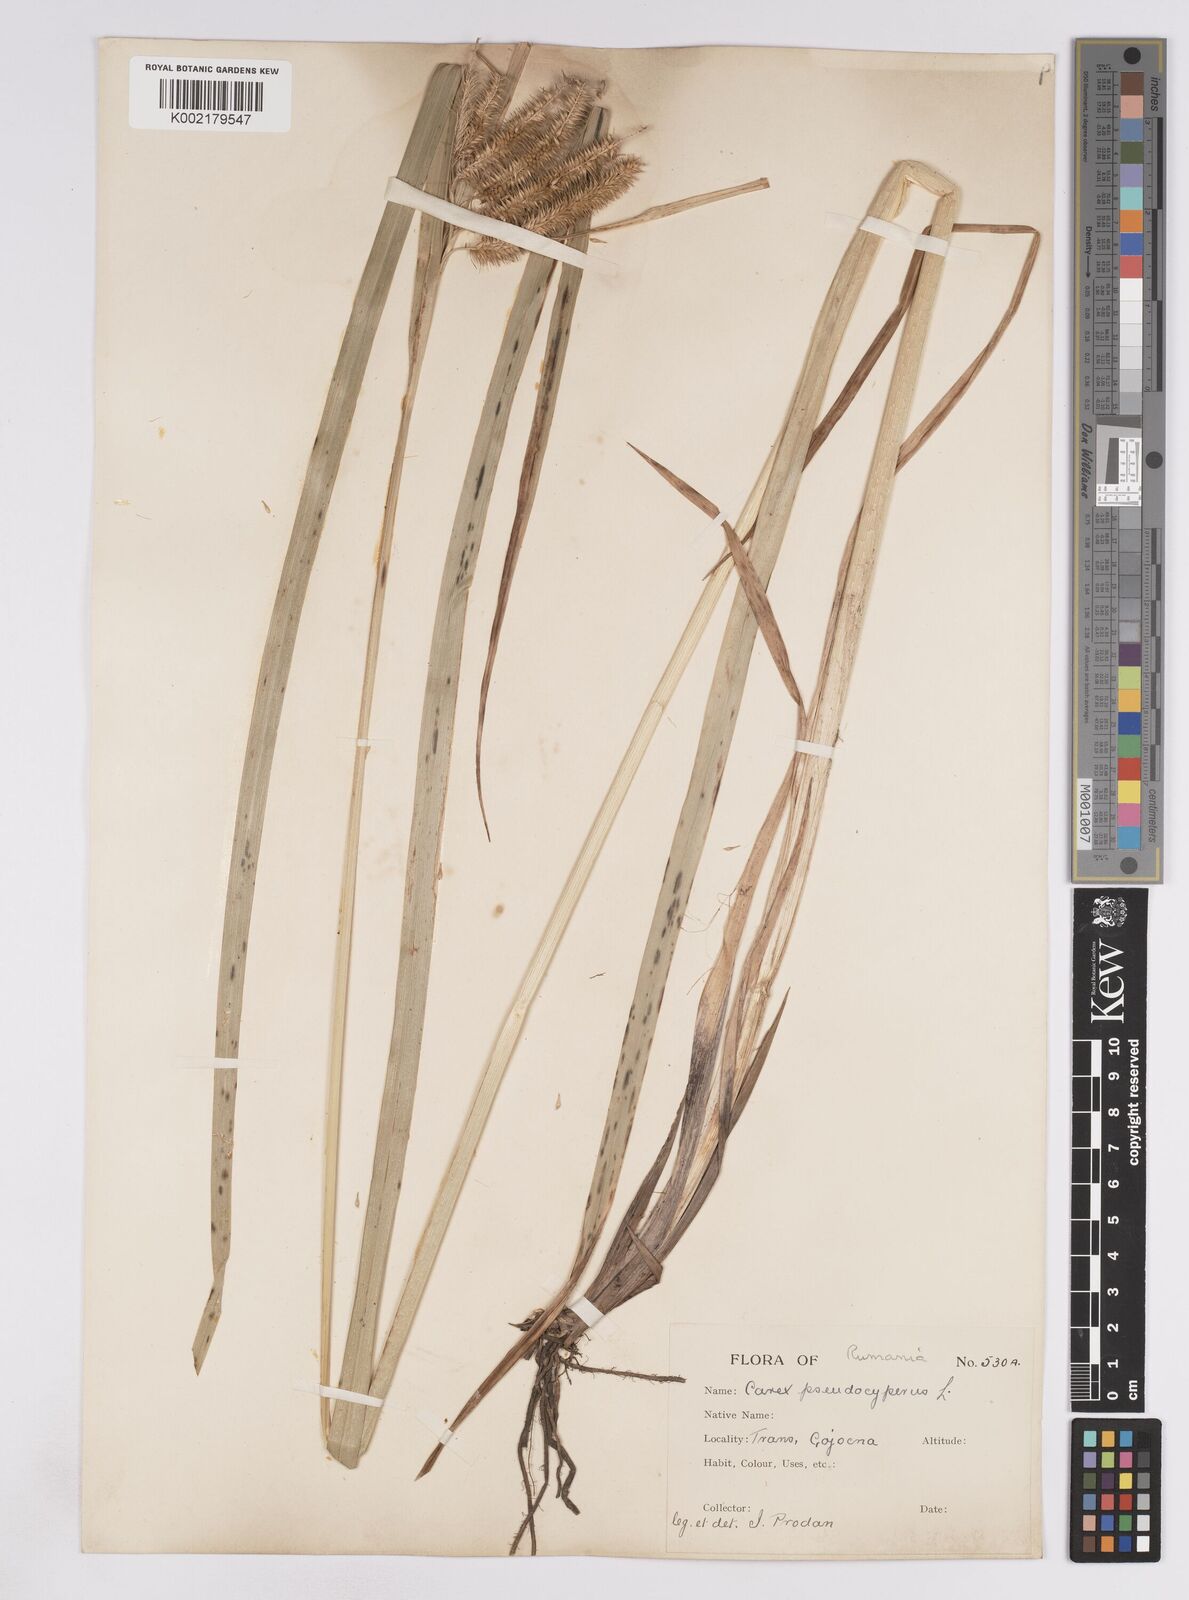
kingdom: Plantae
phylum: Tracheophyta
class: Liliopsida
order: Poales
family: Cyperaceae
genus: Carex
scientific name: Carex pseudocyperus
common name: Cyperus sedge
